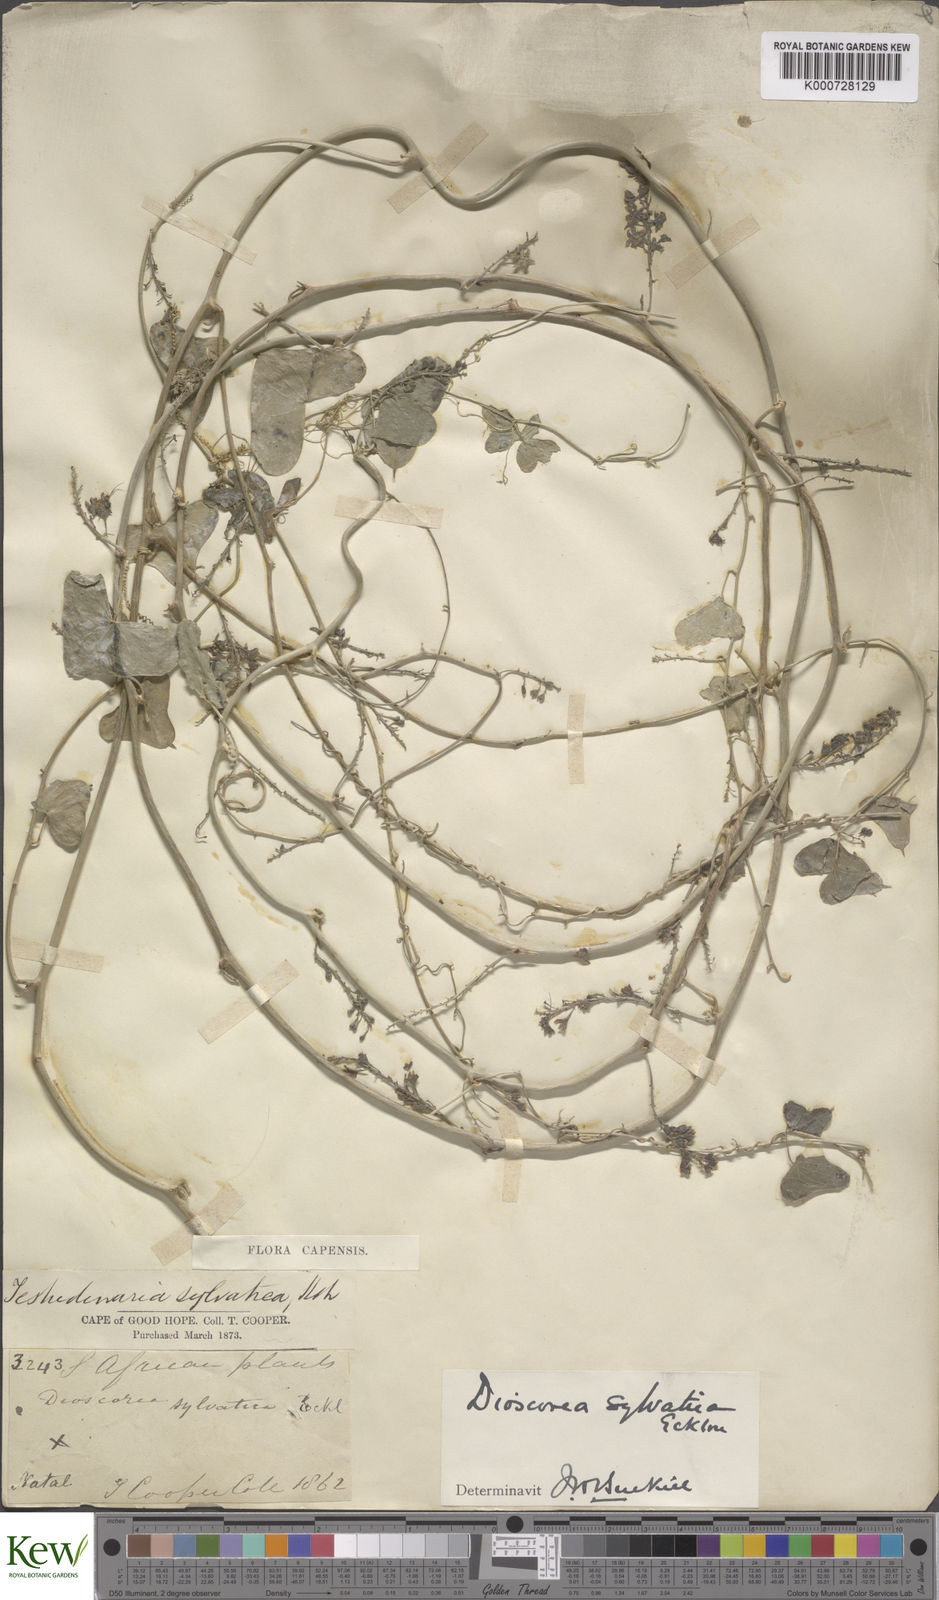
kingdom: Plantae
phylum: Tracheophyta
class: Liliopsida
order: Dioscoreales
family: Dioscoreaceae
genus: Dioscorea
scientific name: Dioscorea sylvatica
